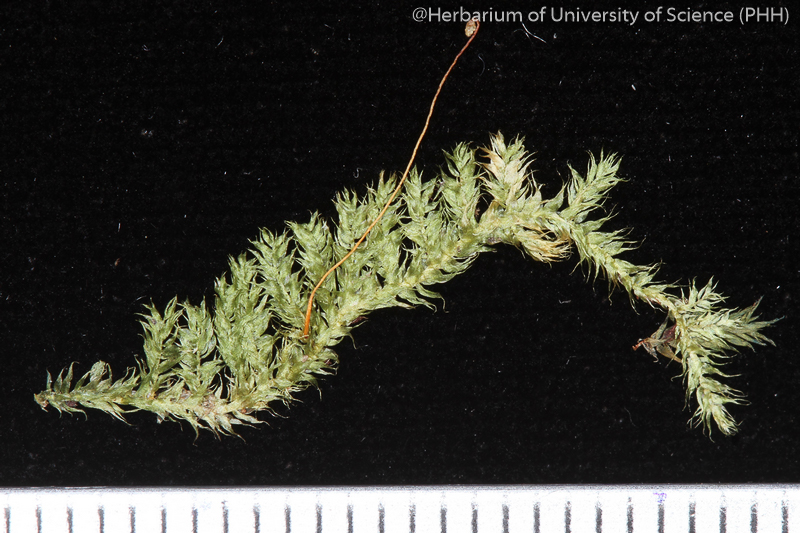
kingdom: Plantae
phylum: Bryophyta
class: Bryopsida
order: Hypnales
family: Hypnaceae
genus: Vesicularia
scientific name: Vesicularia tonkinensis
